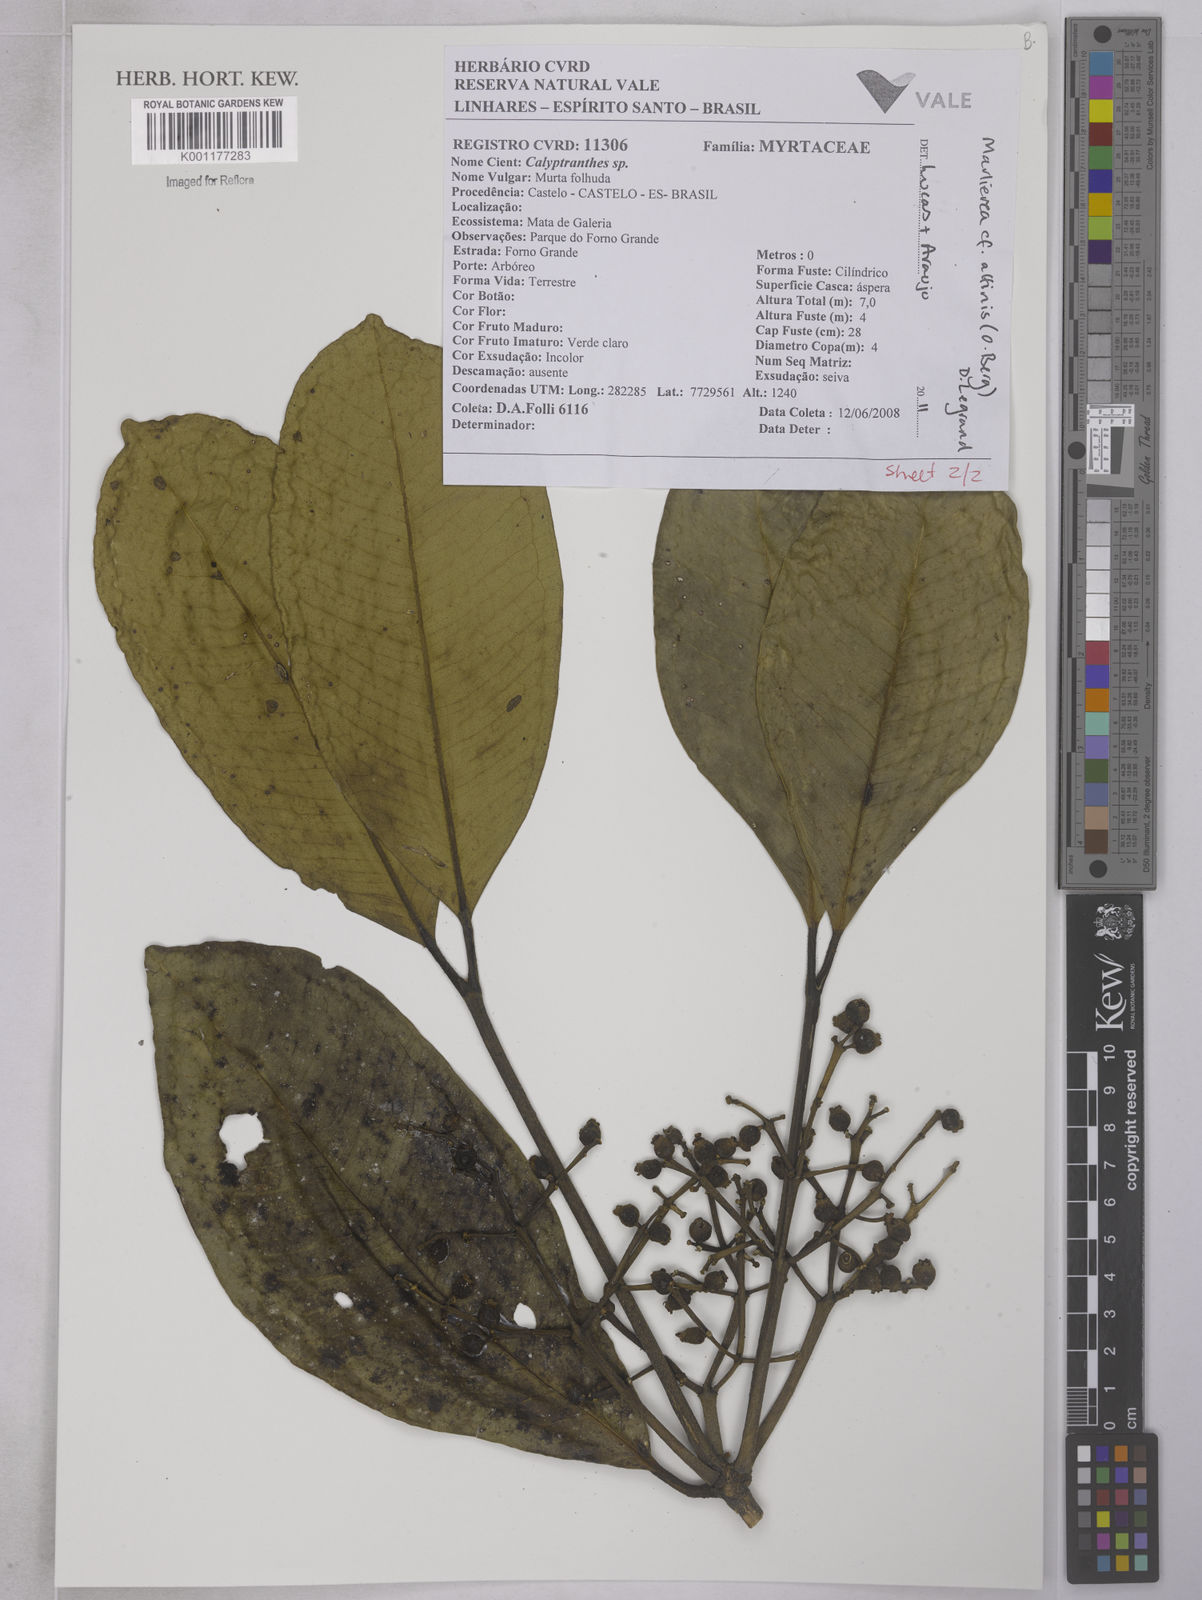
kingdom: Plantae
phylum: Tracheophyta
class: Magnoliopsida
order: Myrtales
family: Myrtaceae
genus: Myrcia
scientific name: Myrcia
